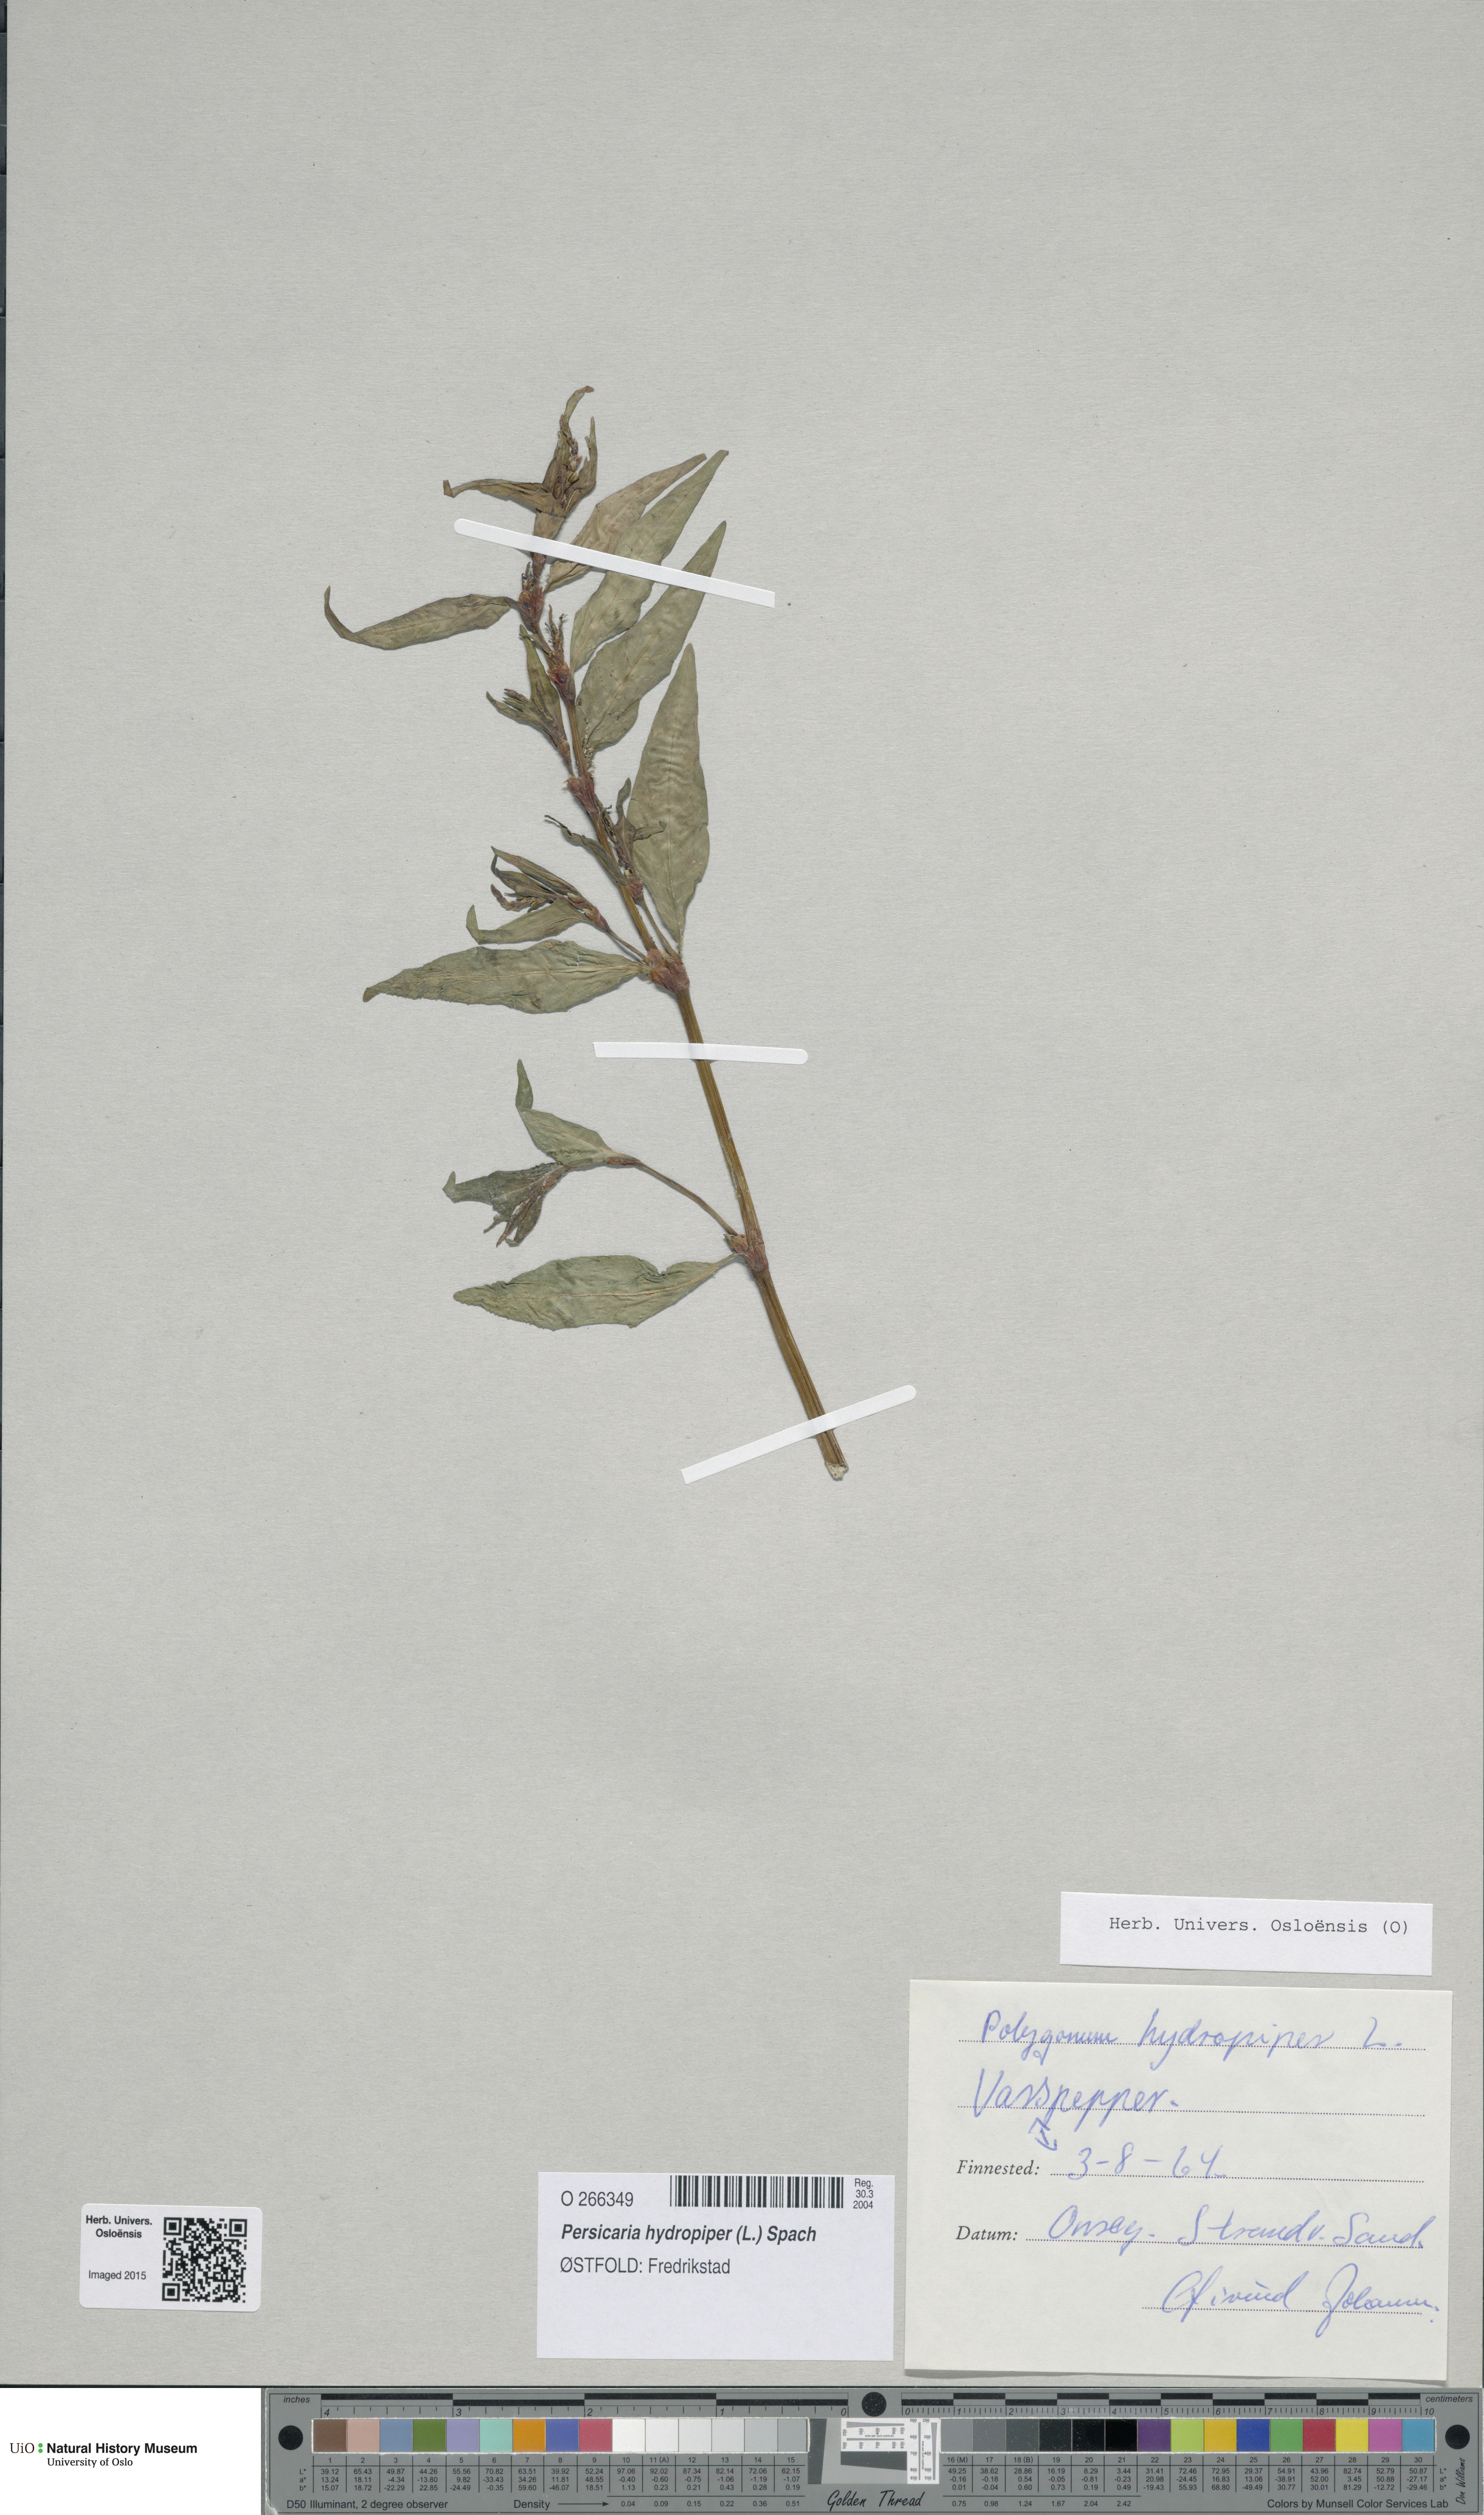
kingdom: Plantae
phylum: Tracheophyta
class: Magnoliopsida
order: Caryophyllales
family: Polygonaceae
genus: Persicaria
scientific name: Persicaria hydropiper
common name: Water-pepper
